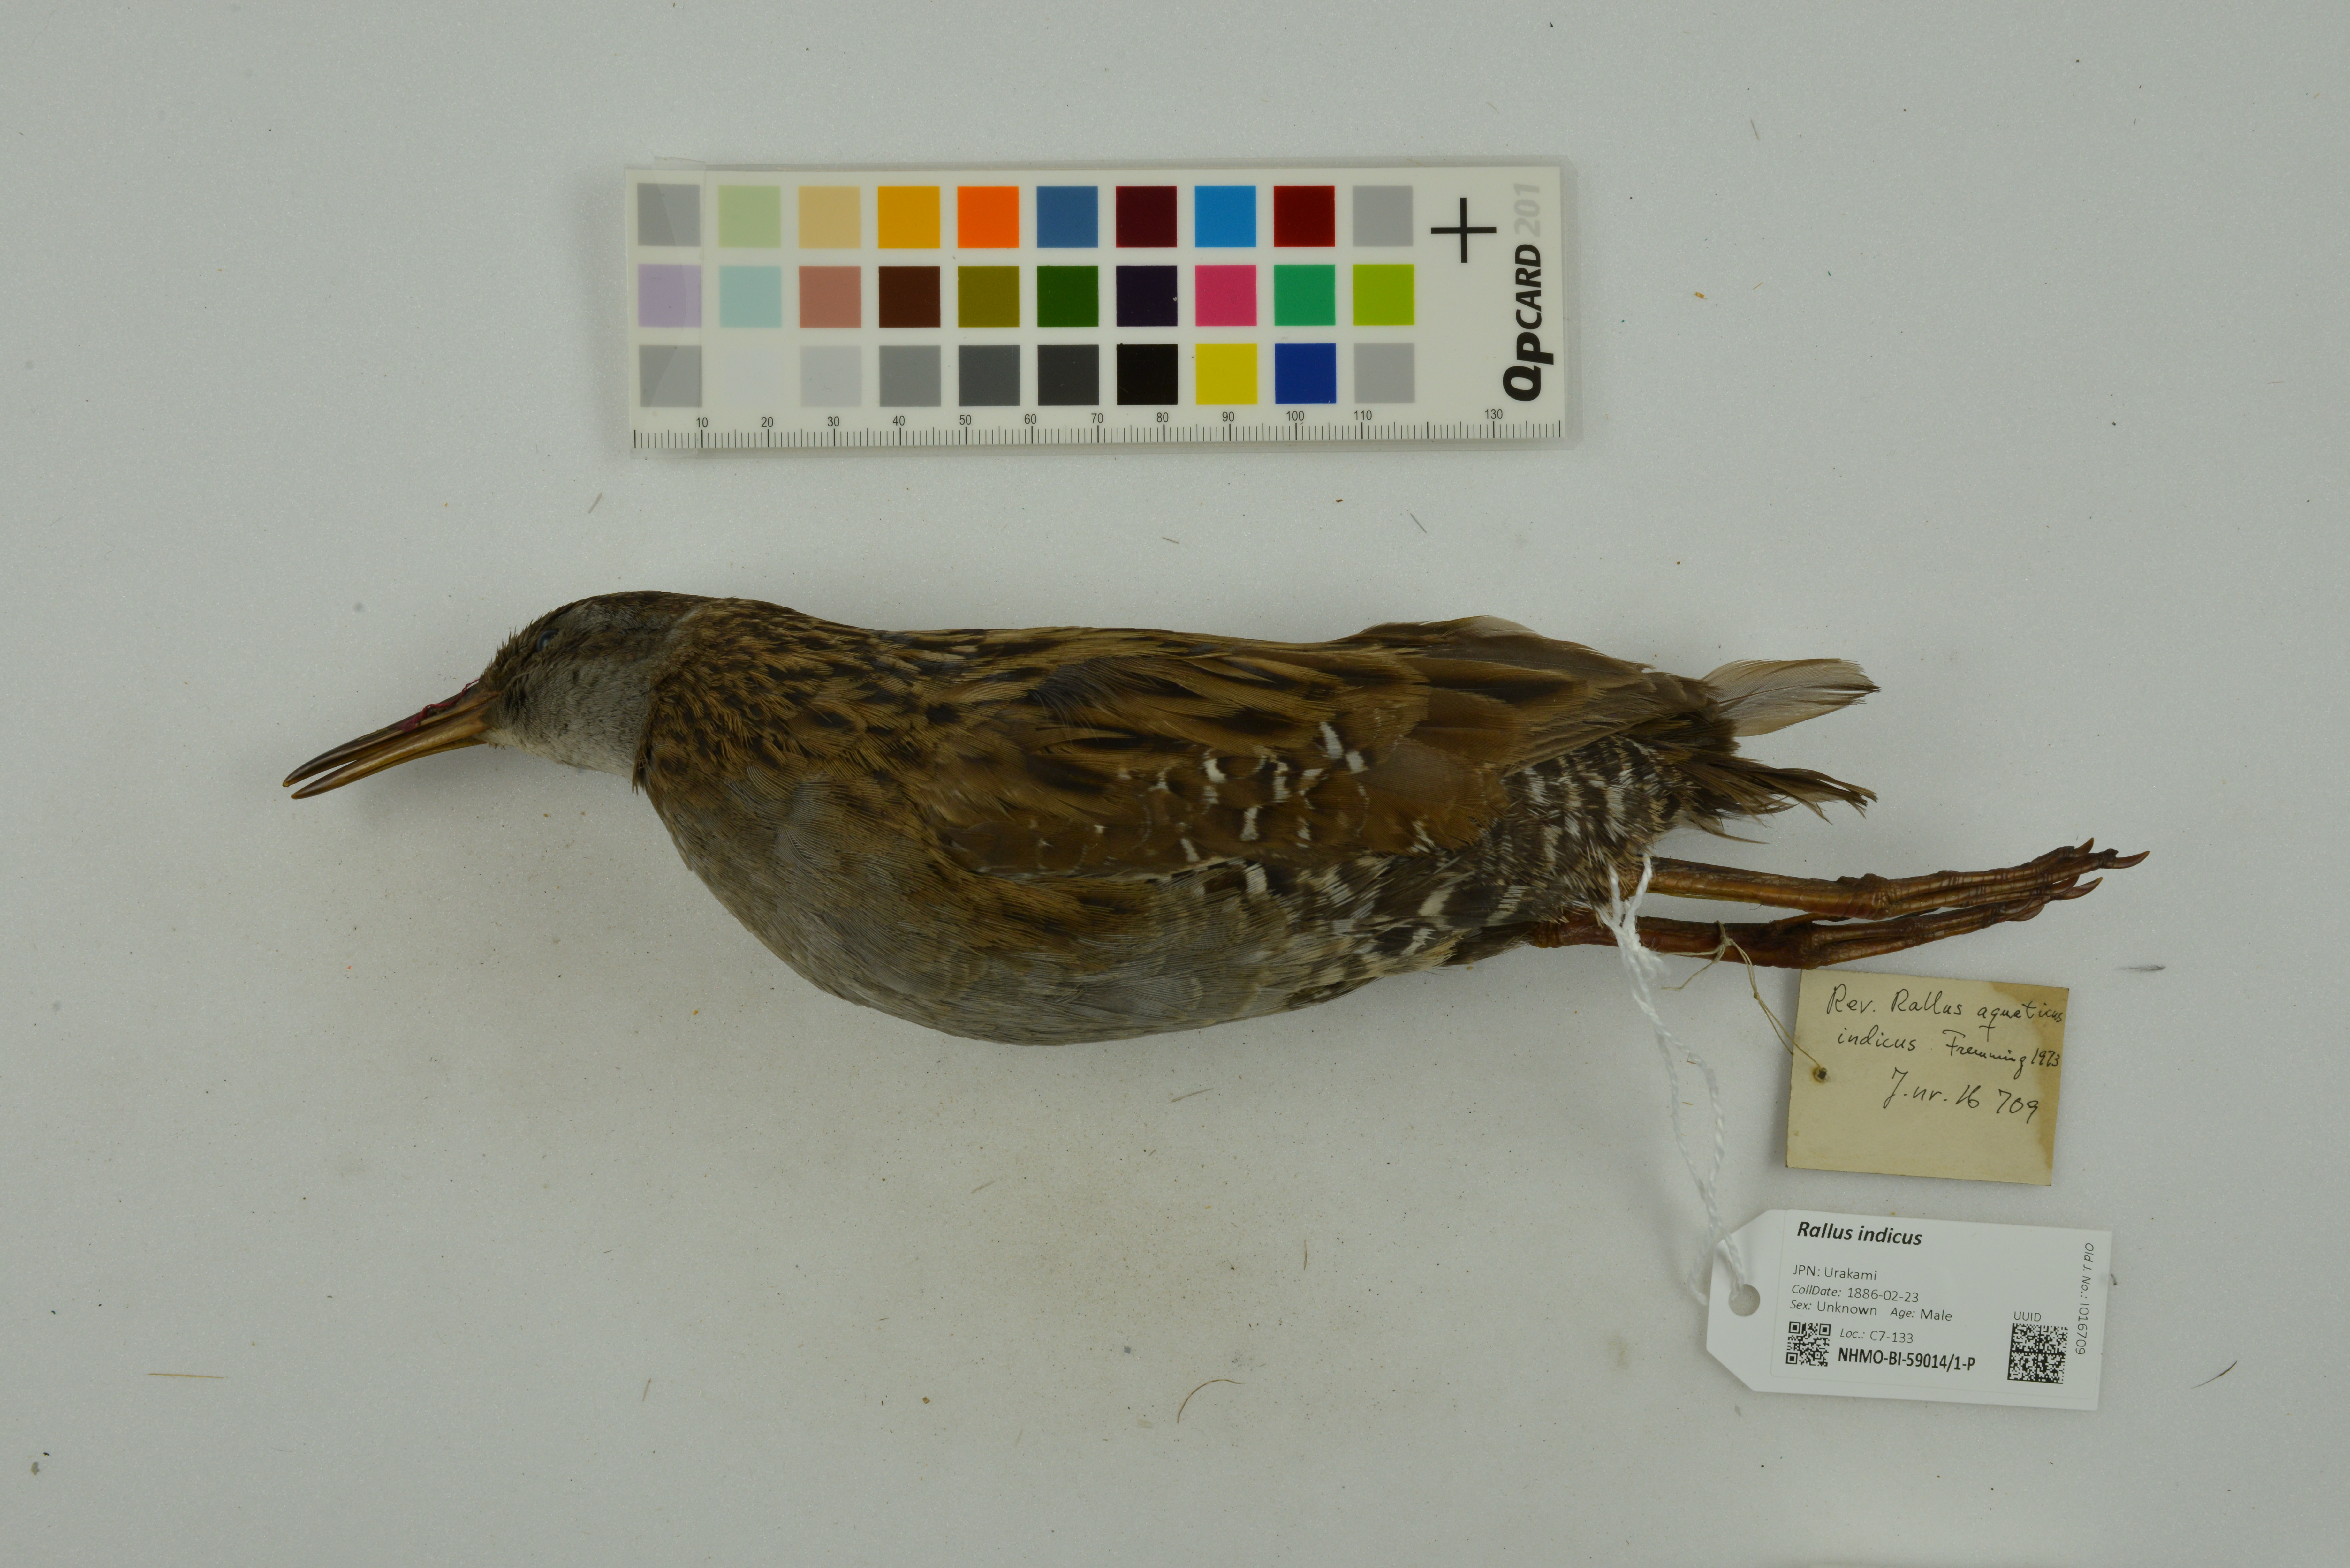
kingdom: Animalia
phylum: Chordata
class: Aves
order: Gruiformes
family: Rallidae
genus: Rallus
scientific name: Rallus indicus
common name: Brown-cheeked rail
